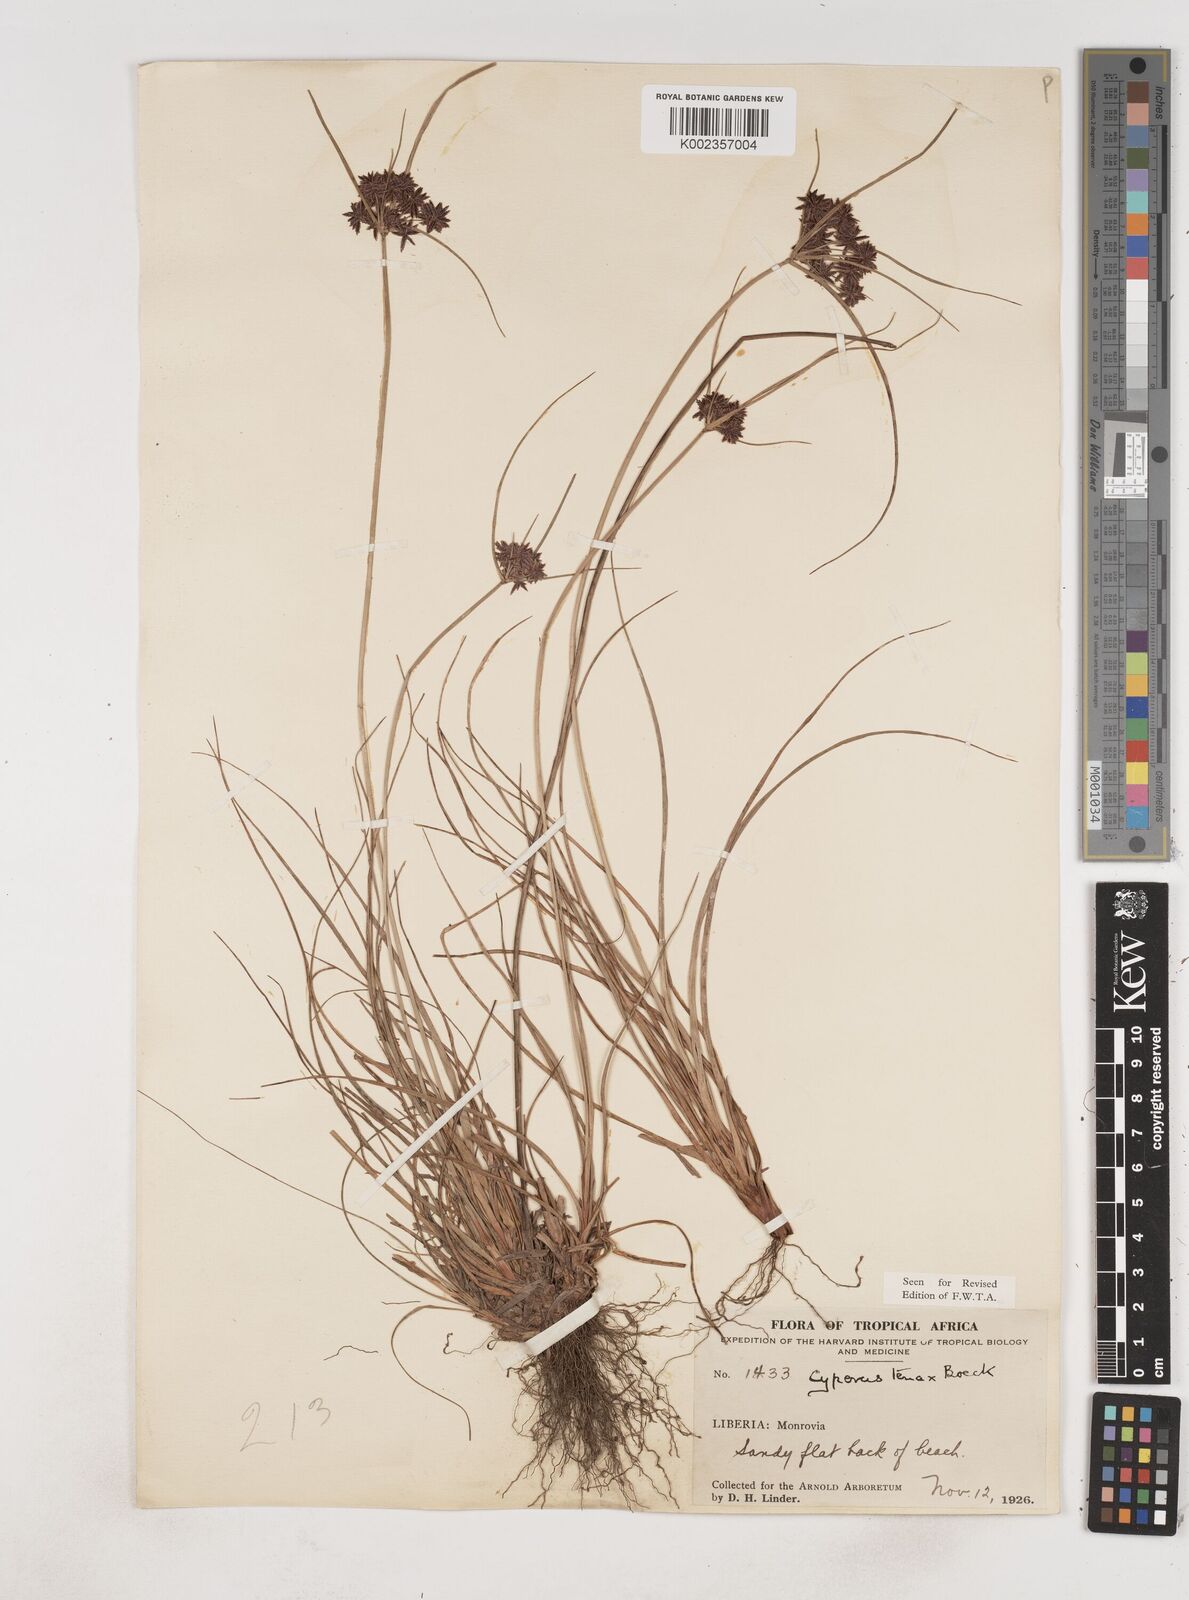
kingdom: Plantae
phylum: Tracheophyta
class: Liliopsida
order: Poales
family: Cyperaceae
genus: Cyperus
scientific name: Cyperus tenax
